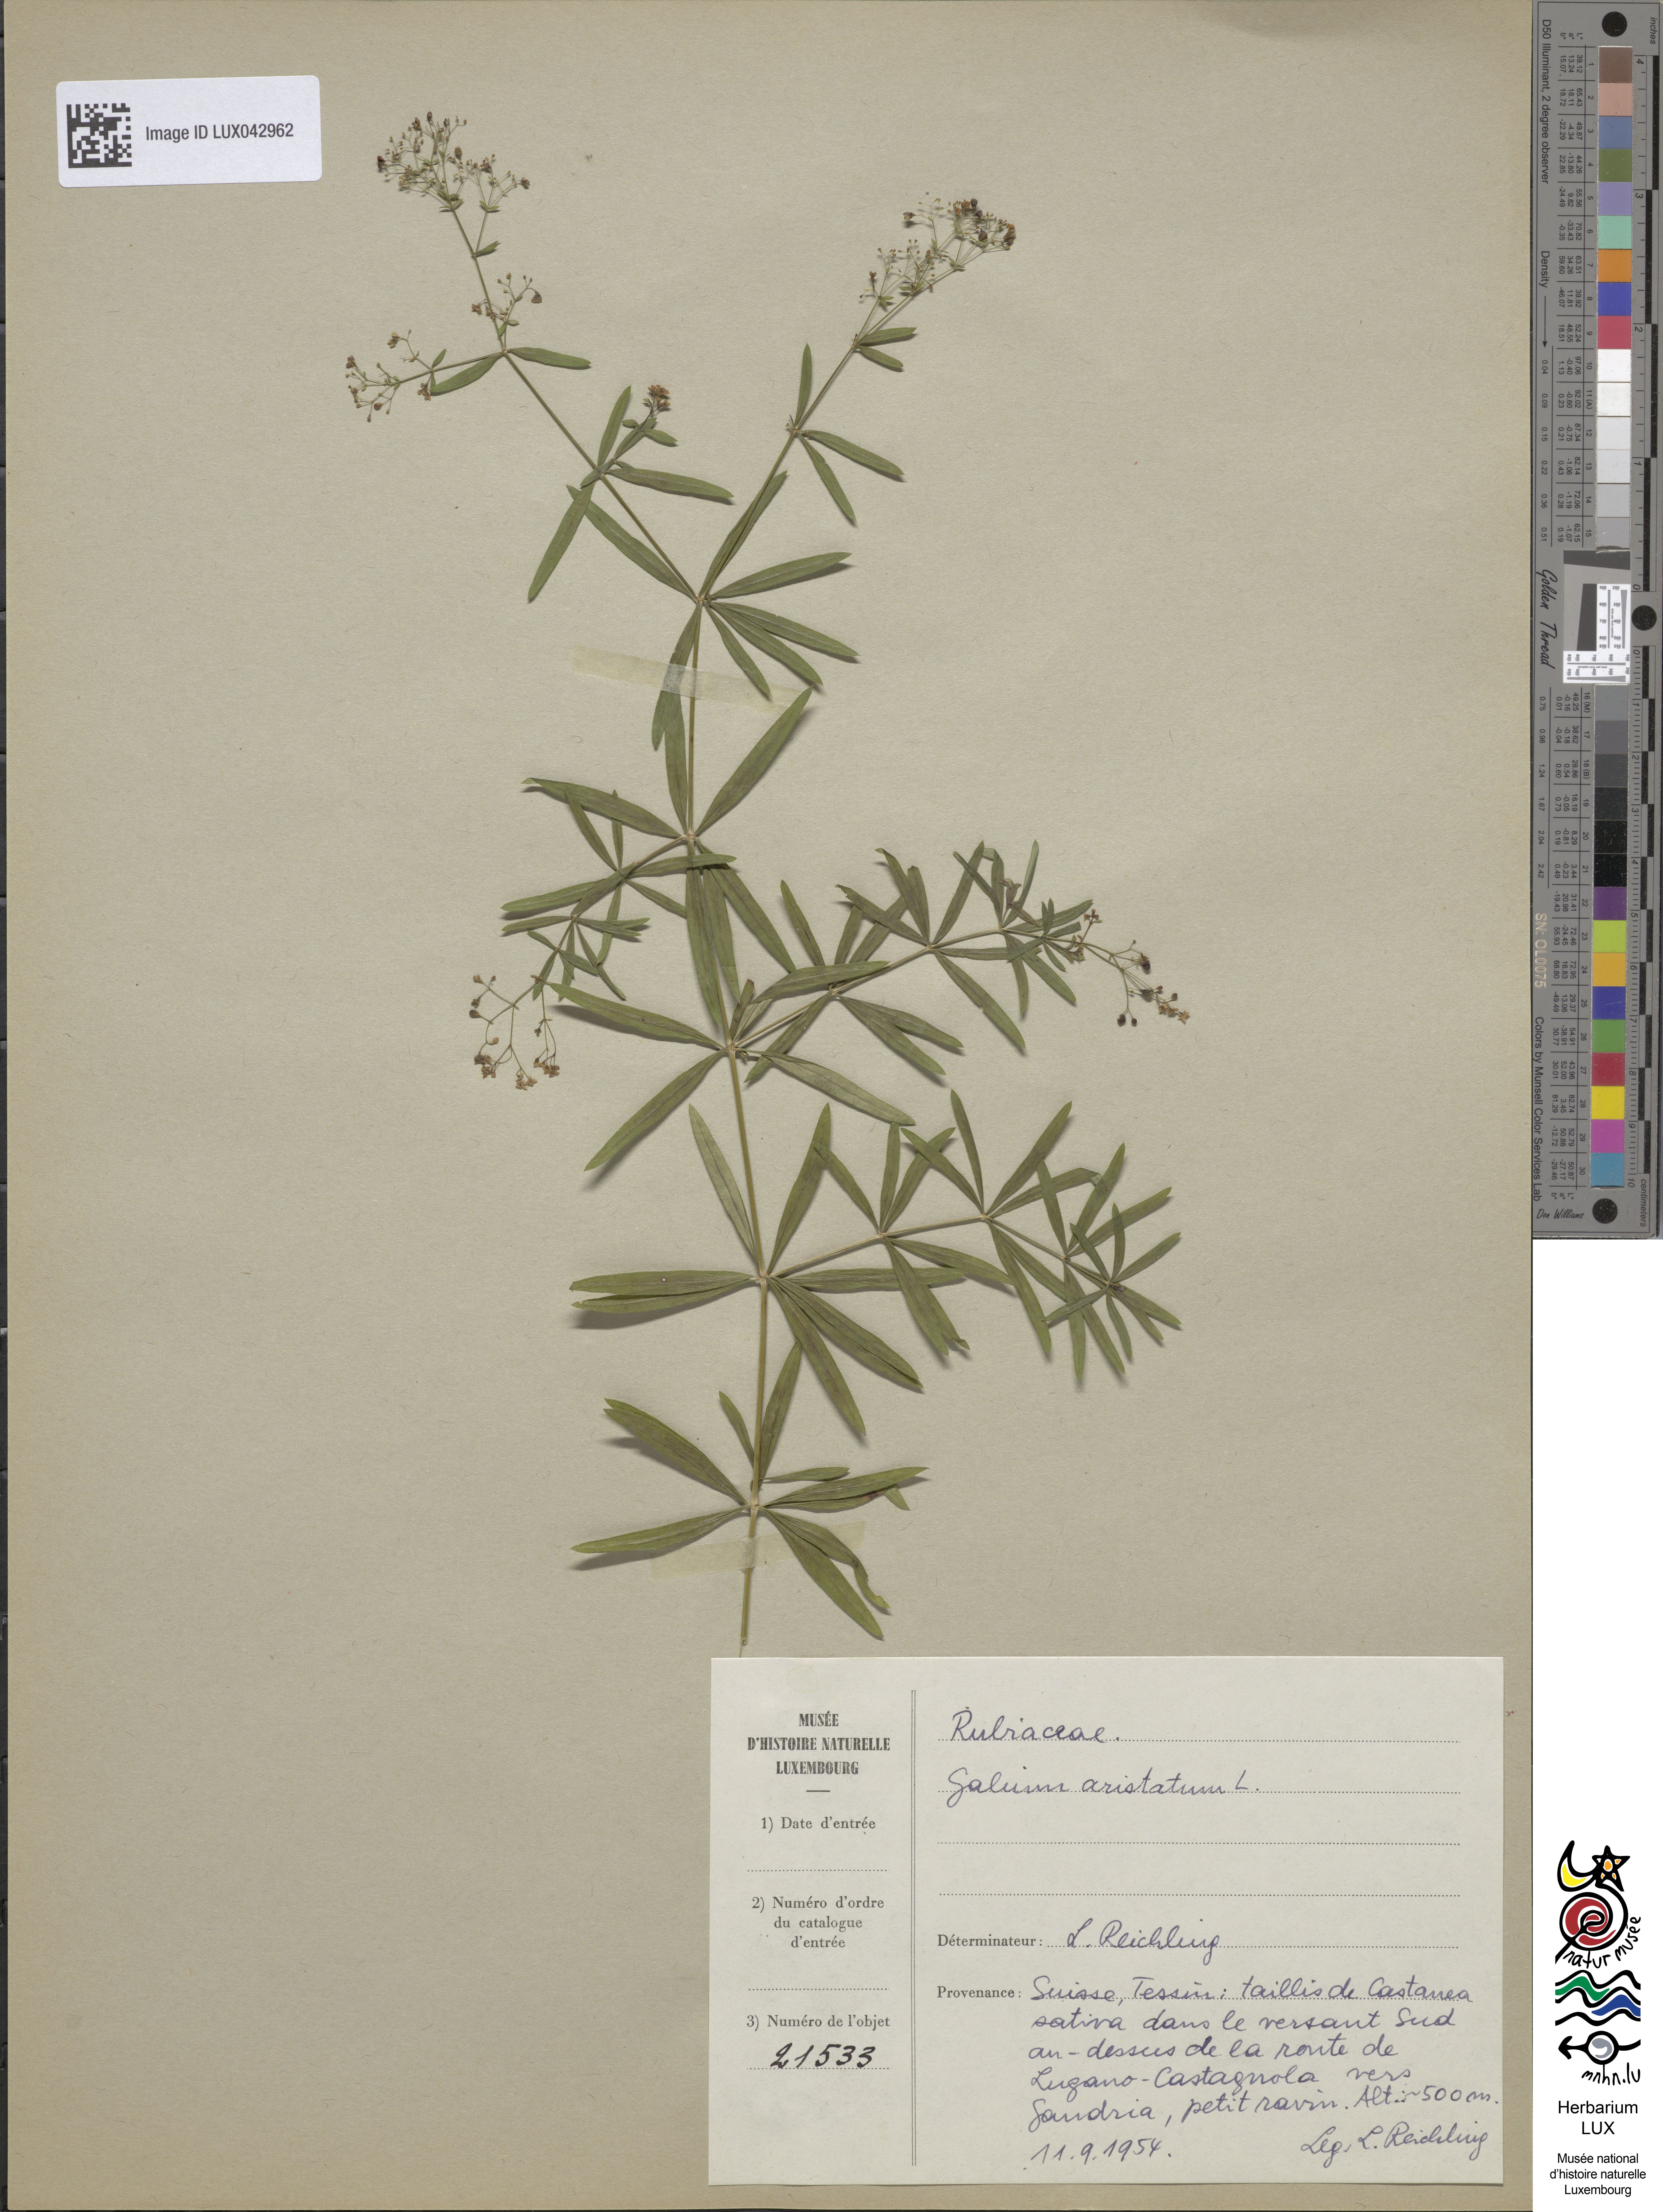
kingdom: Plantae
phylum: Tracheophyta
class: Magnoliopsida
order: Gentianales
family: Rubiaceae
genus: Galium
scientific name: Galium aristatum
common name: Awned bedstraw
